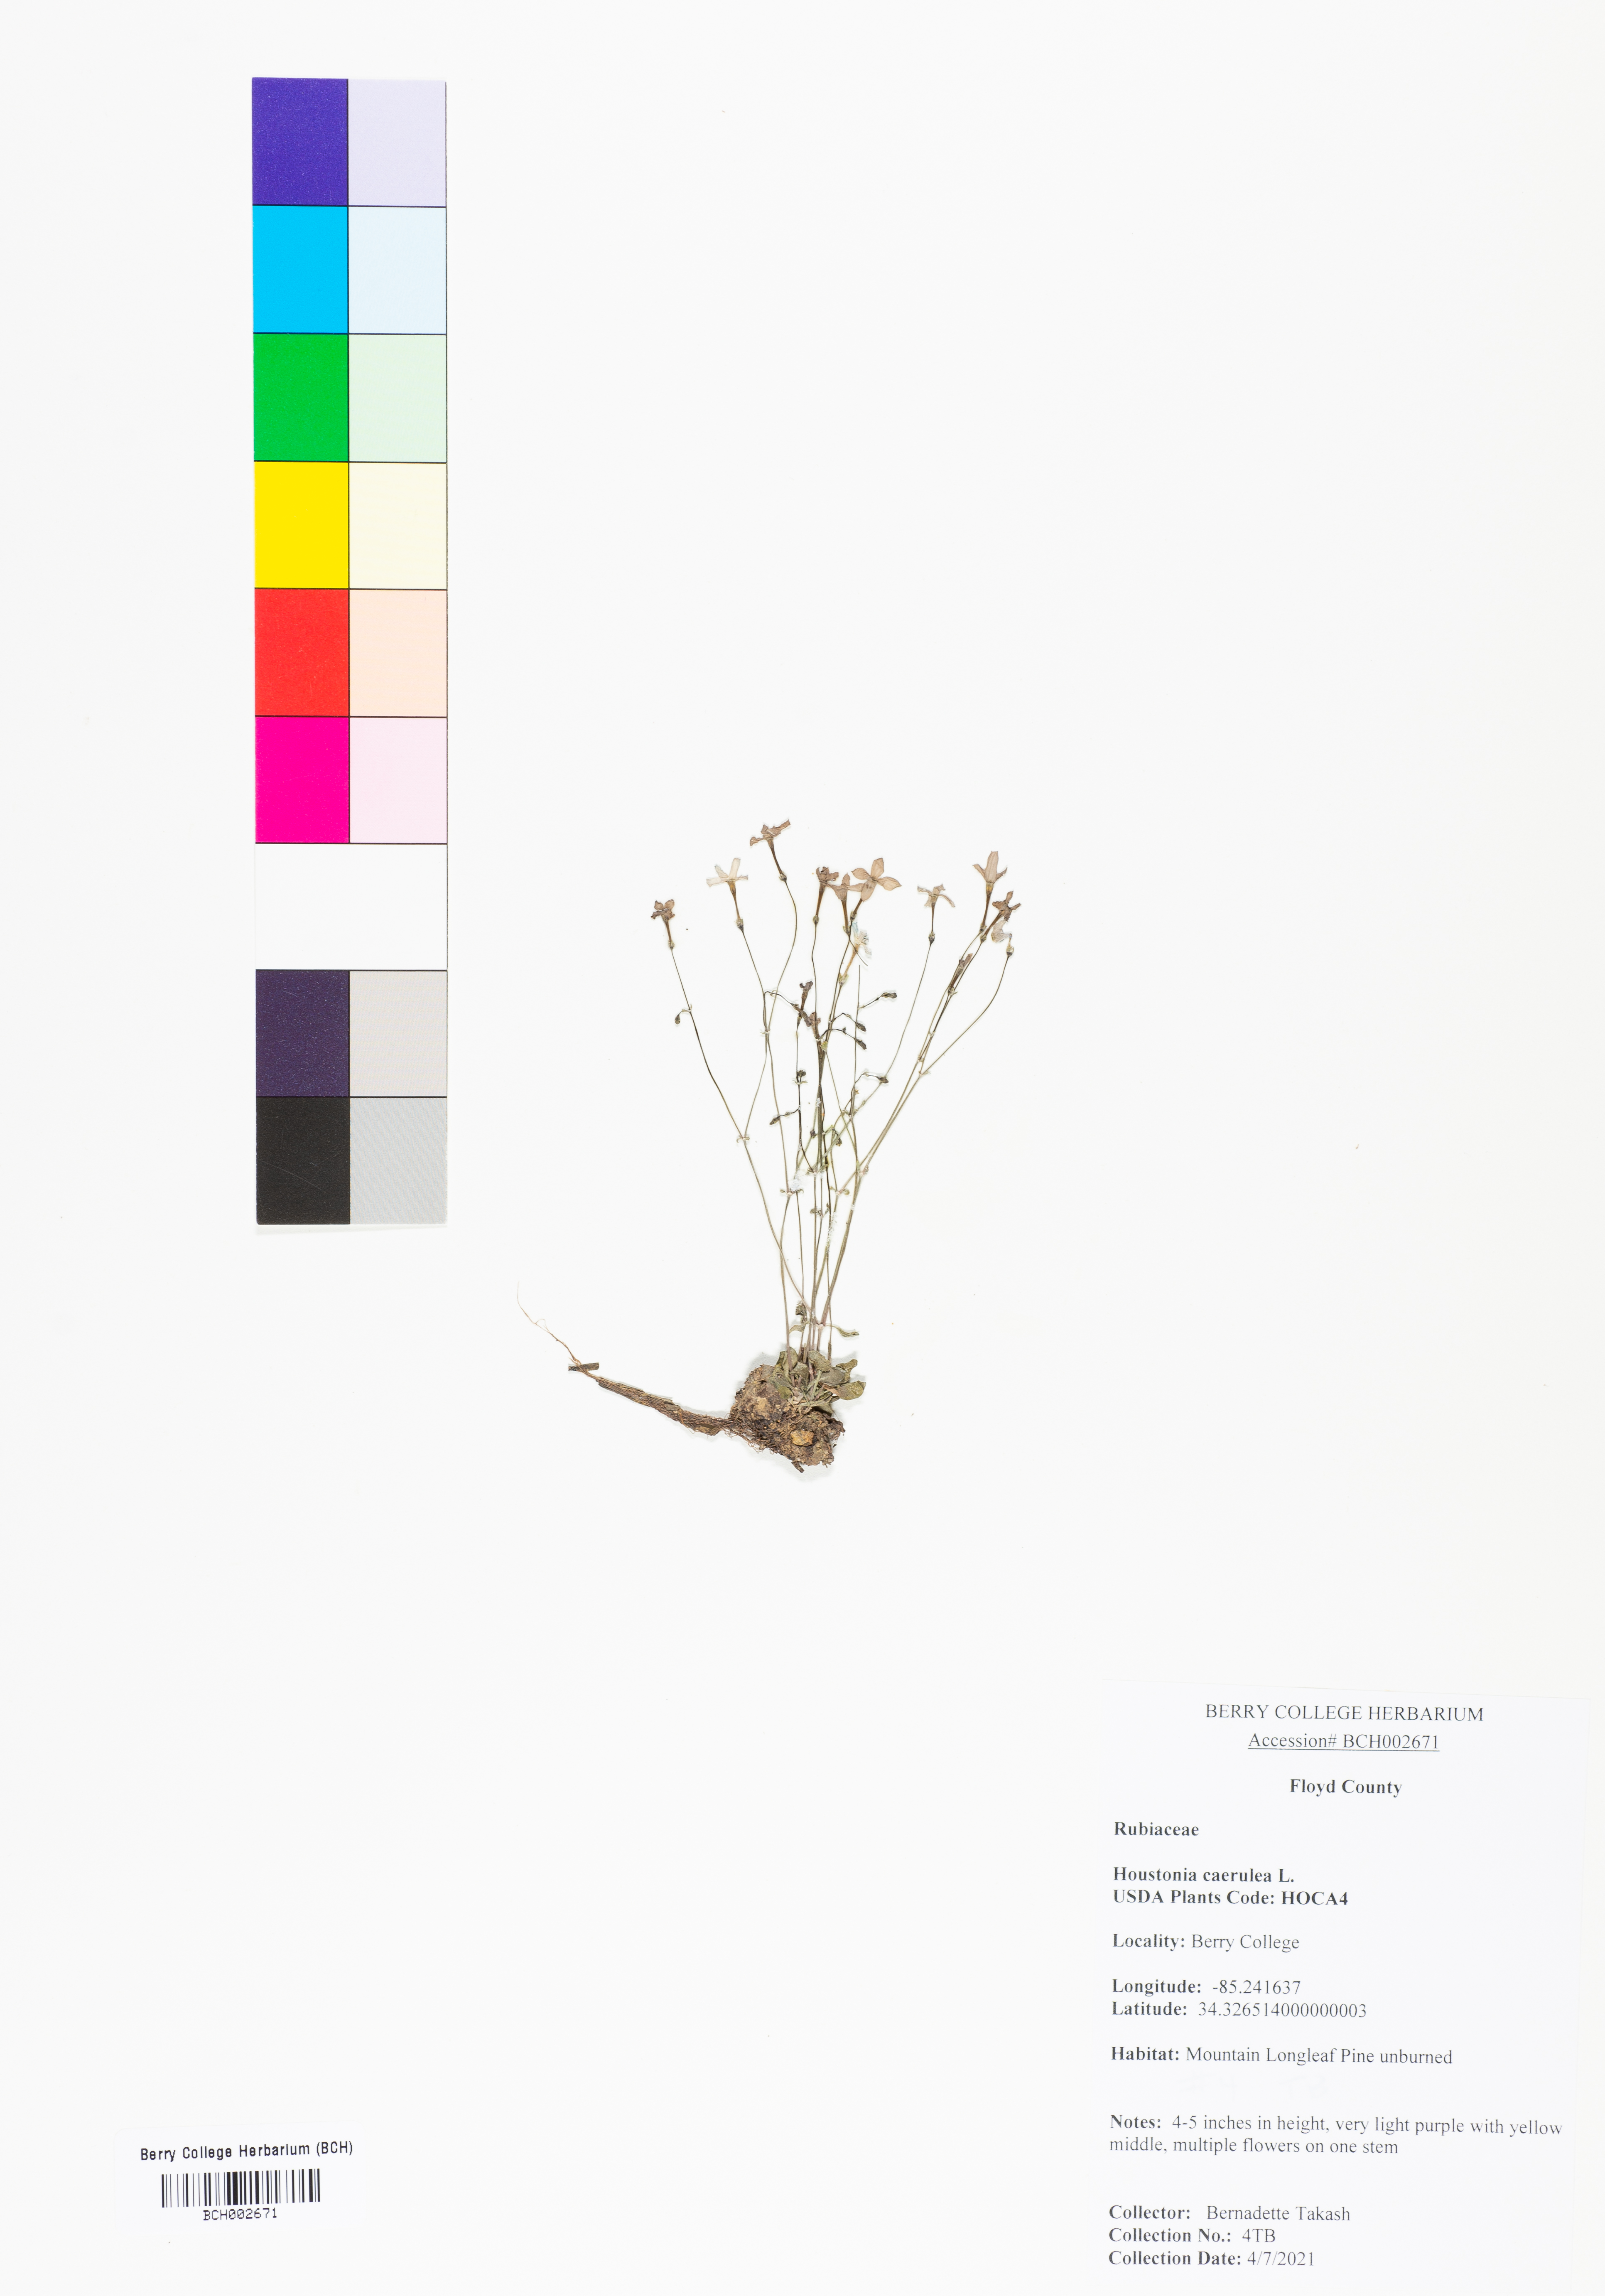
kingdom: Plantae
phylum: Tracheophyta
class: Magnoliopsida
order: Gentianales
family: Rubiaceae
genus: Houstonia
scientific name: Houstonia caerulea
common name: Bluets
